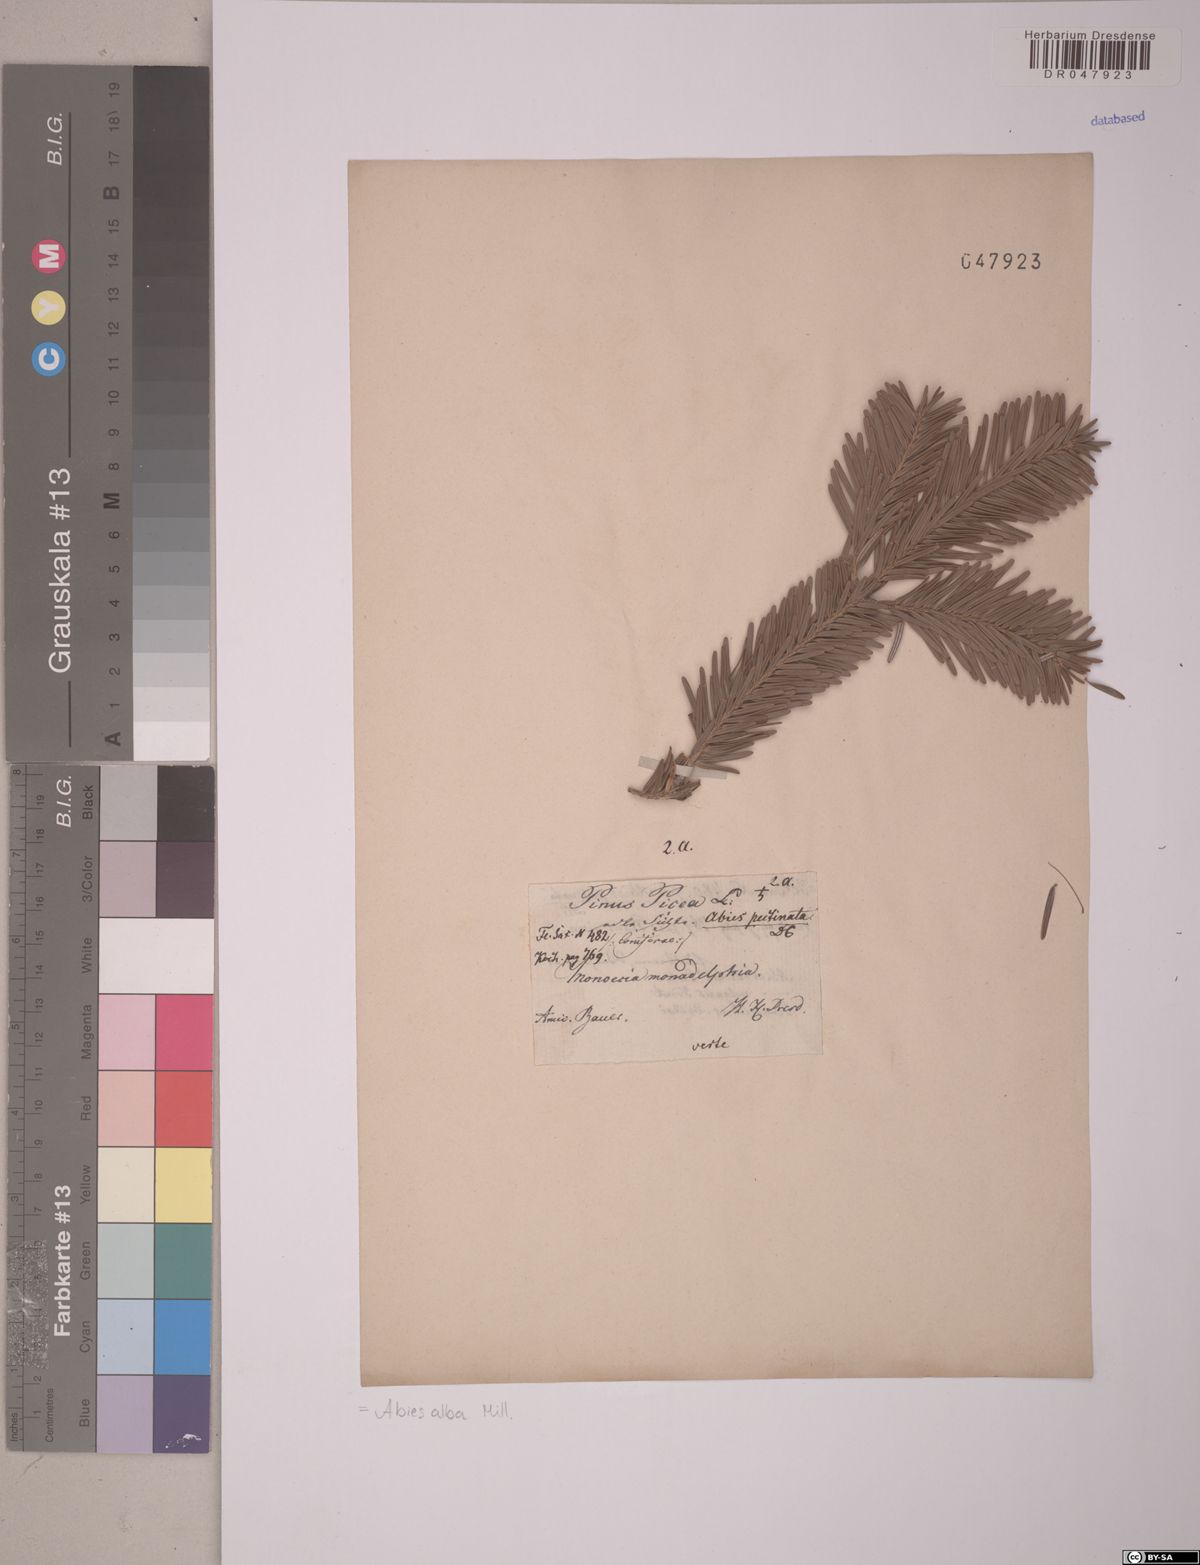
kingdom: Plantae
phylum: Tracheophyta
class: Pinopsida
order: Pinales
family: Pinaceae
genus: Abies
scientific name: Abies alba
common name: Silver fir
